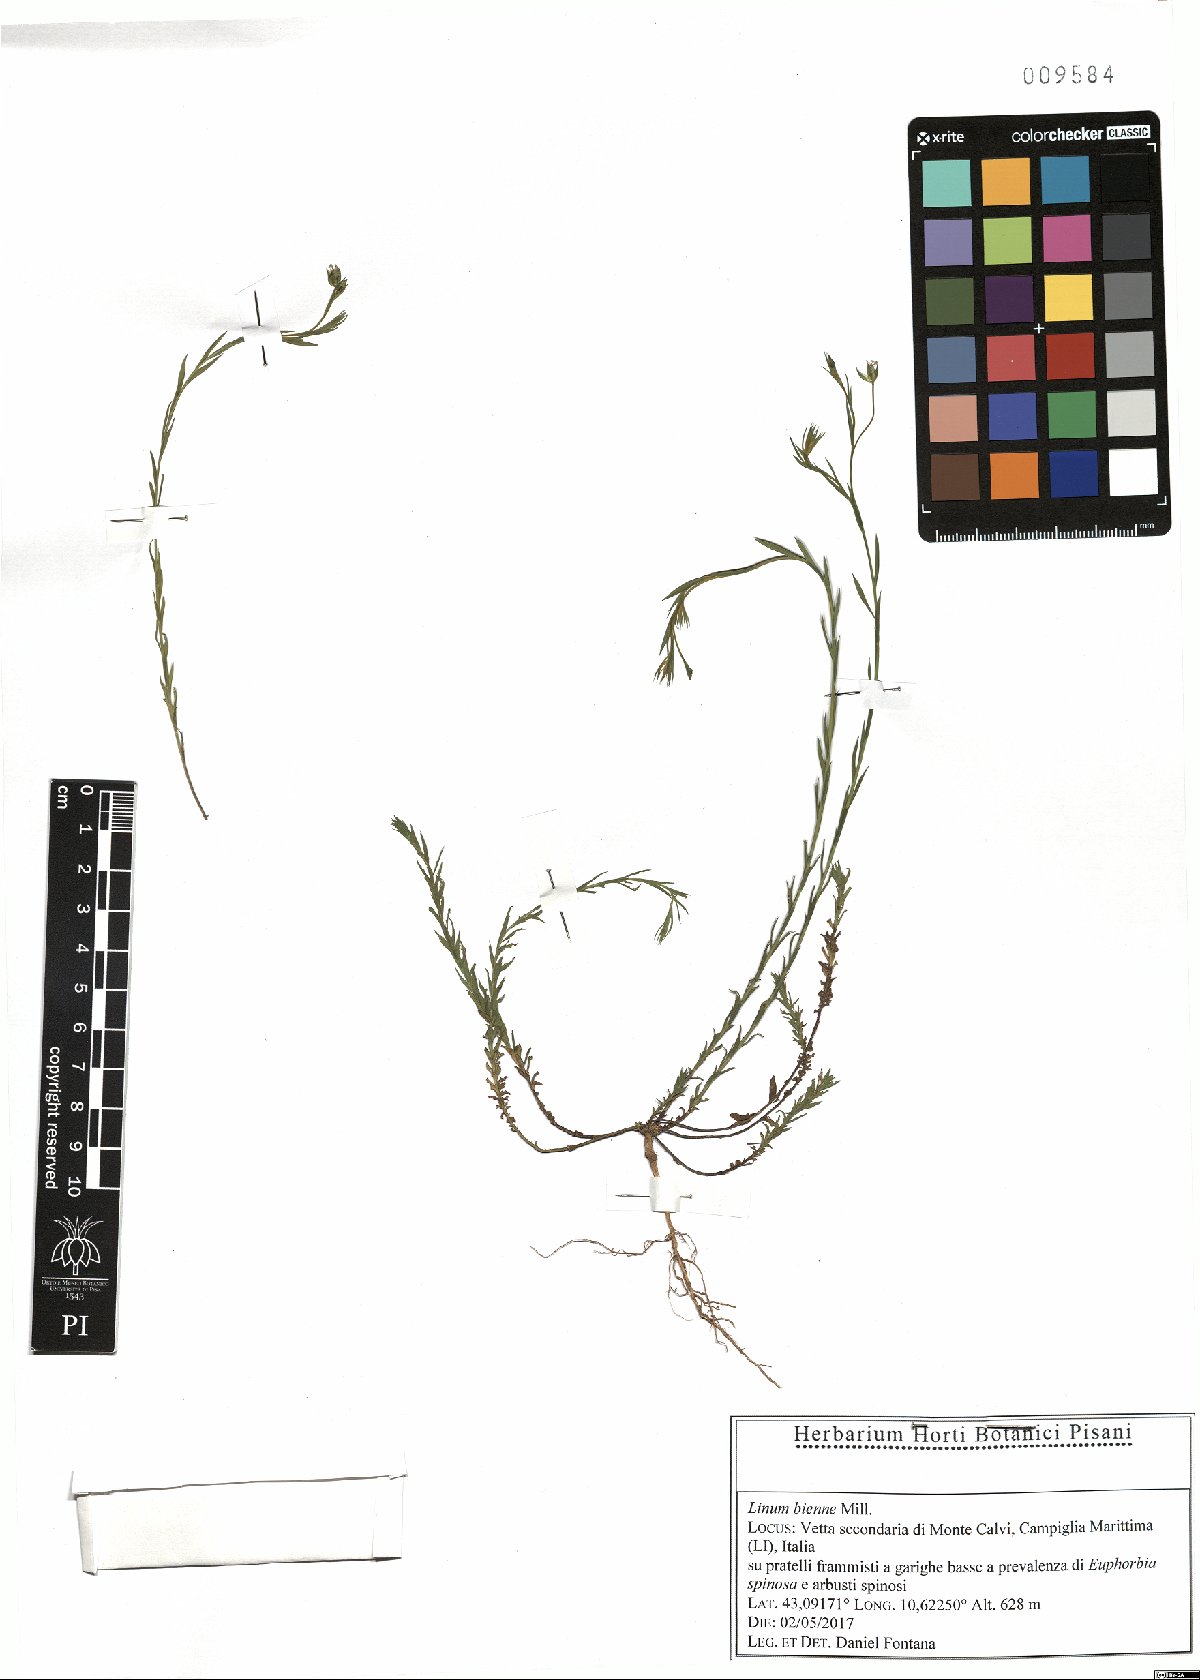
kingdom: Plantae
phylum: Tracheophyta
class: Magnoliopsida
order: Malpighiales
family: Linaceae
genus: Linum
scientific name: Linum bienne
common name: Pale flax
